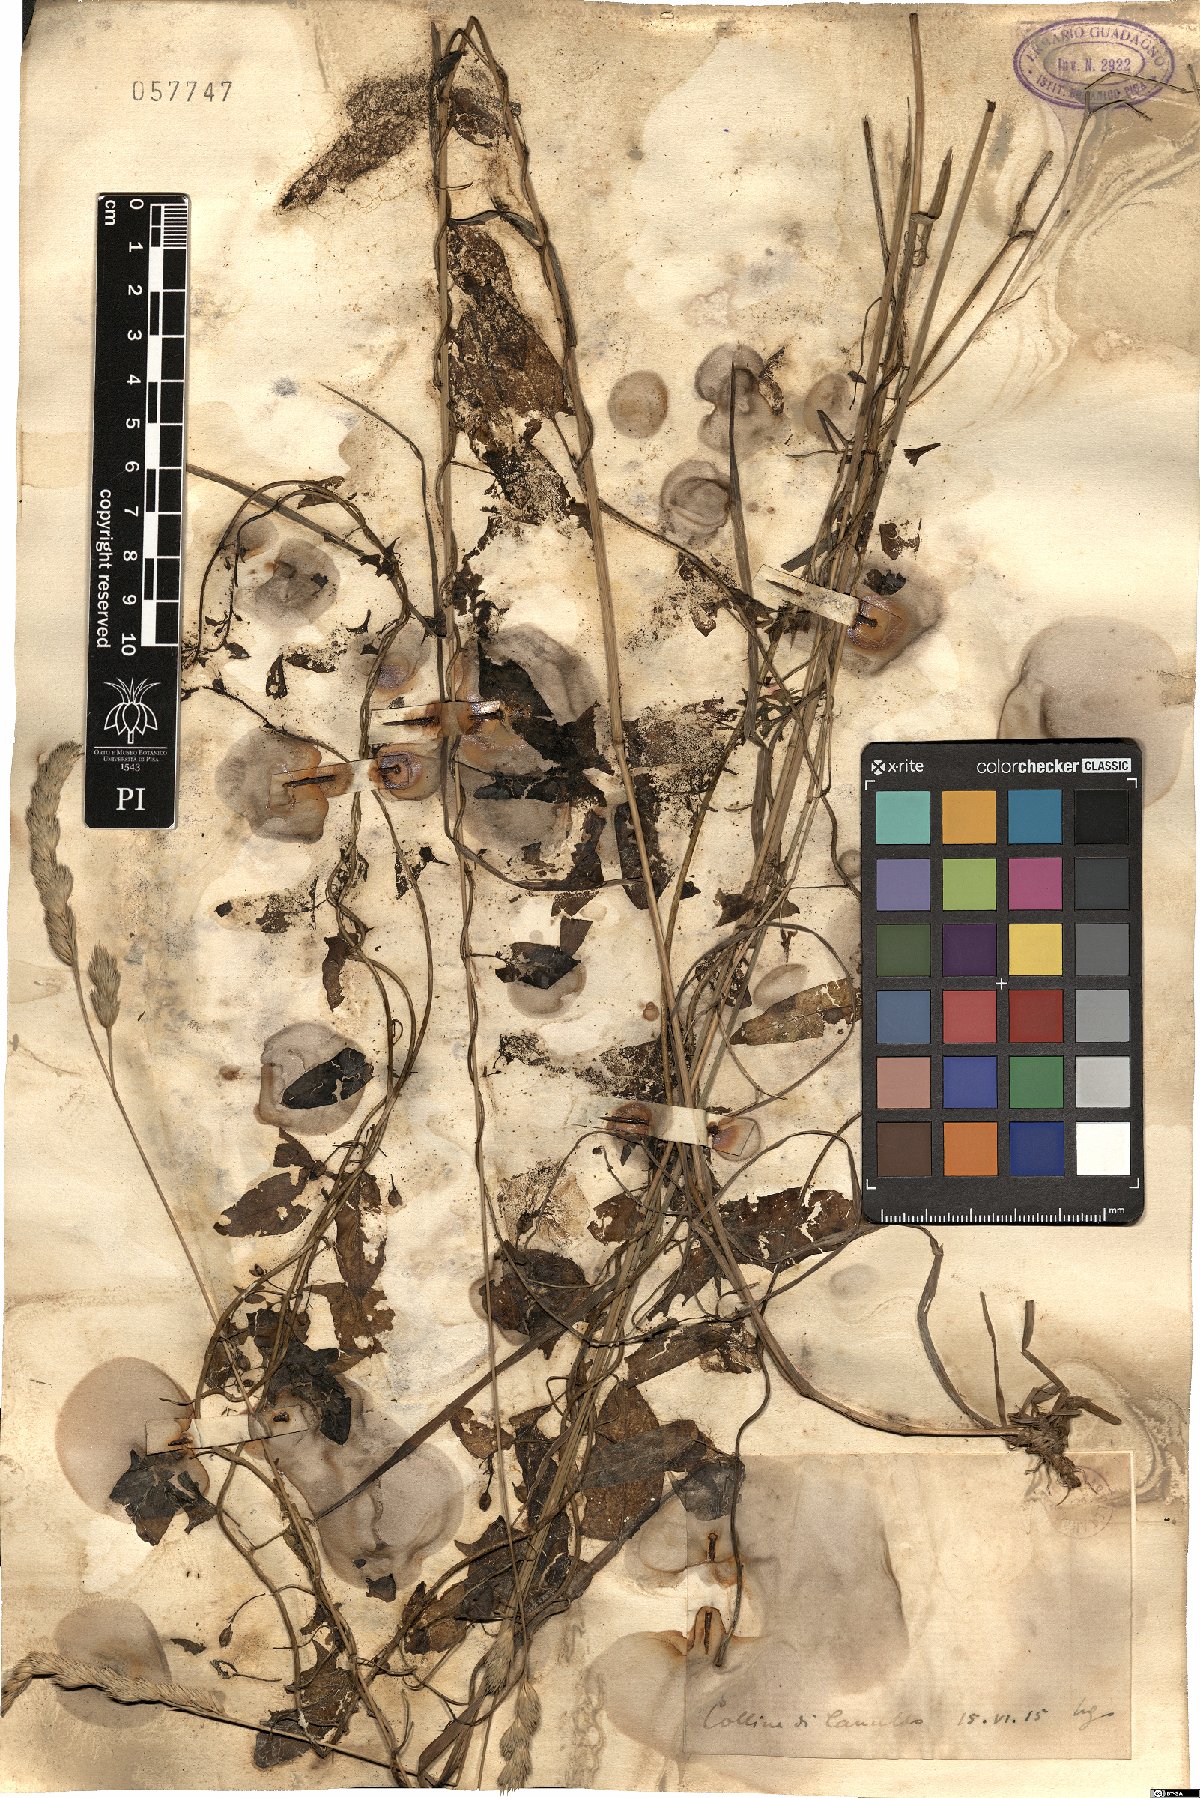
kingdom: Plantae
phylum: Tracheophyta
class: Magnoliopsida
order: Solanales
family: Convolvulaceae
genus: Convolvulus
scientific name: Convolvulus
